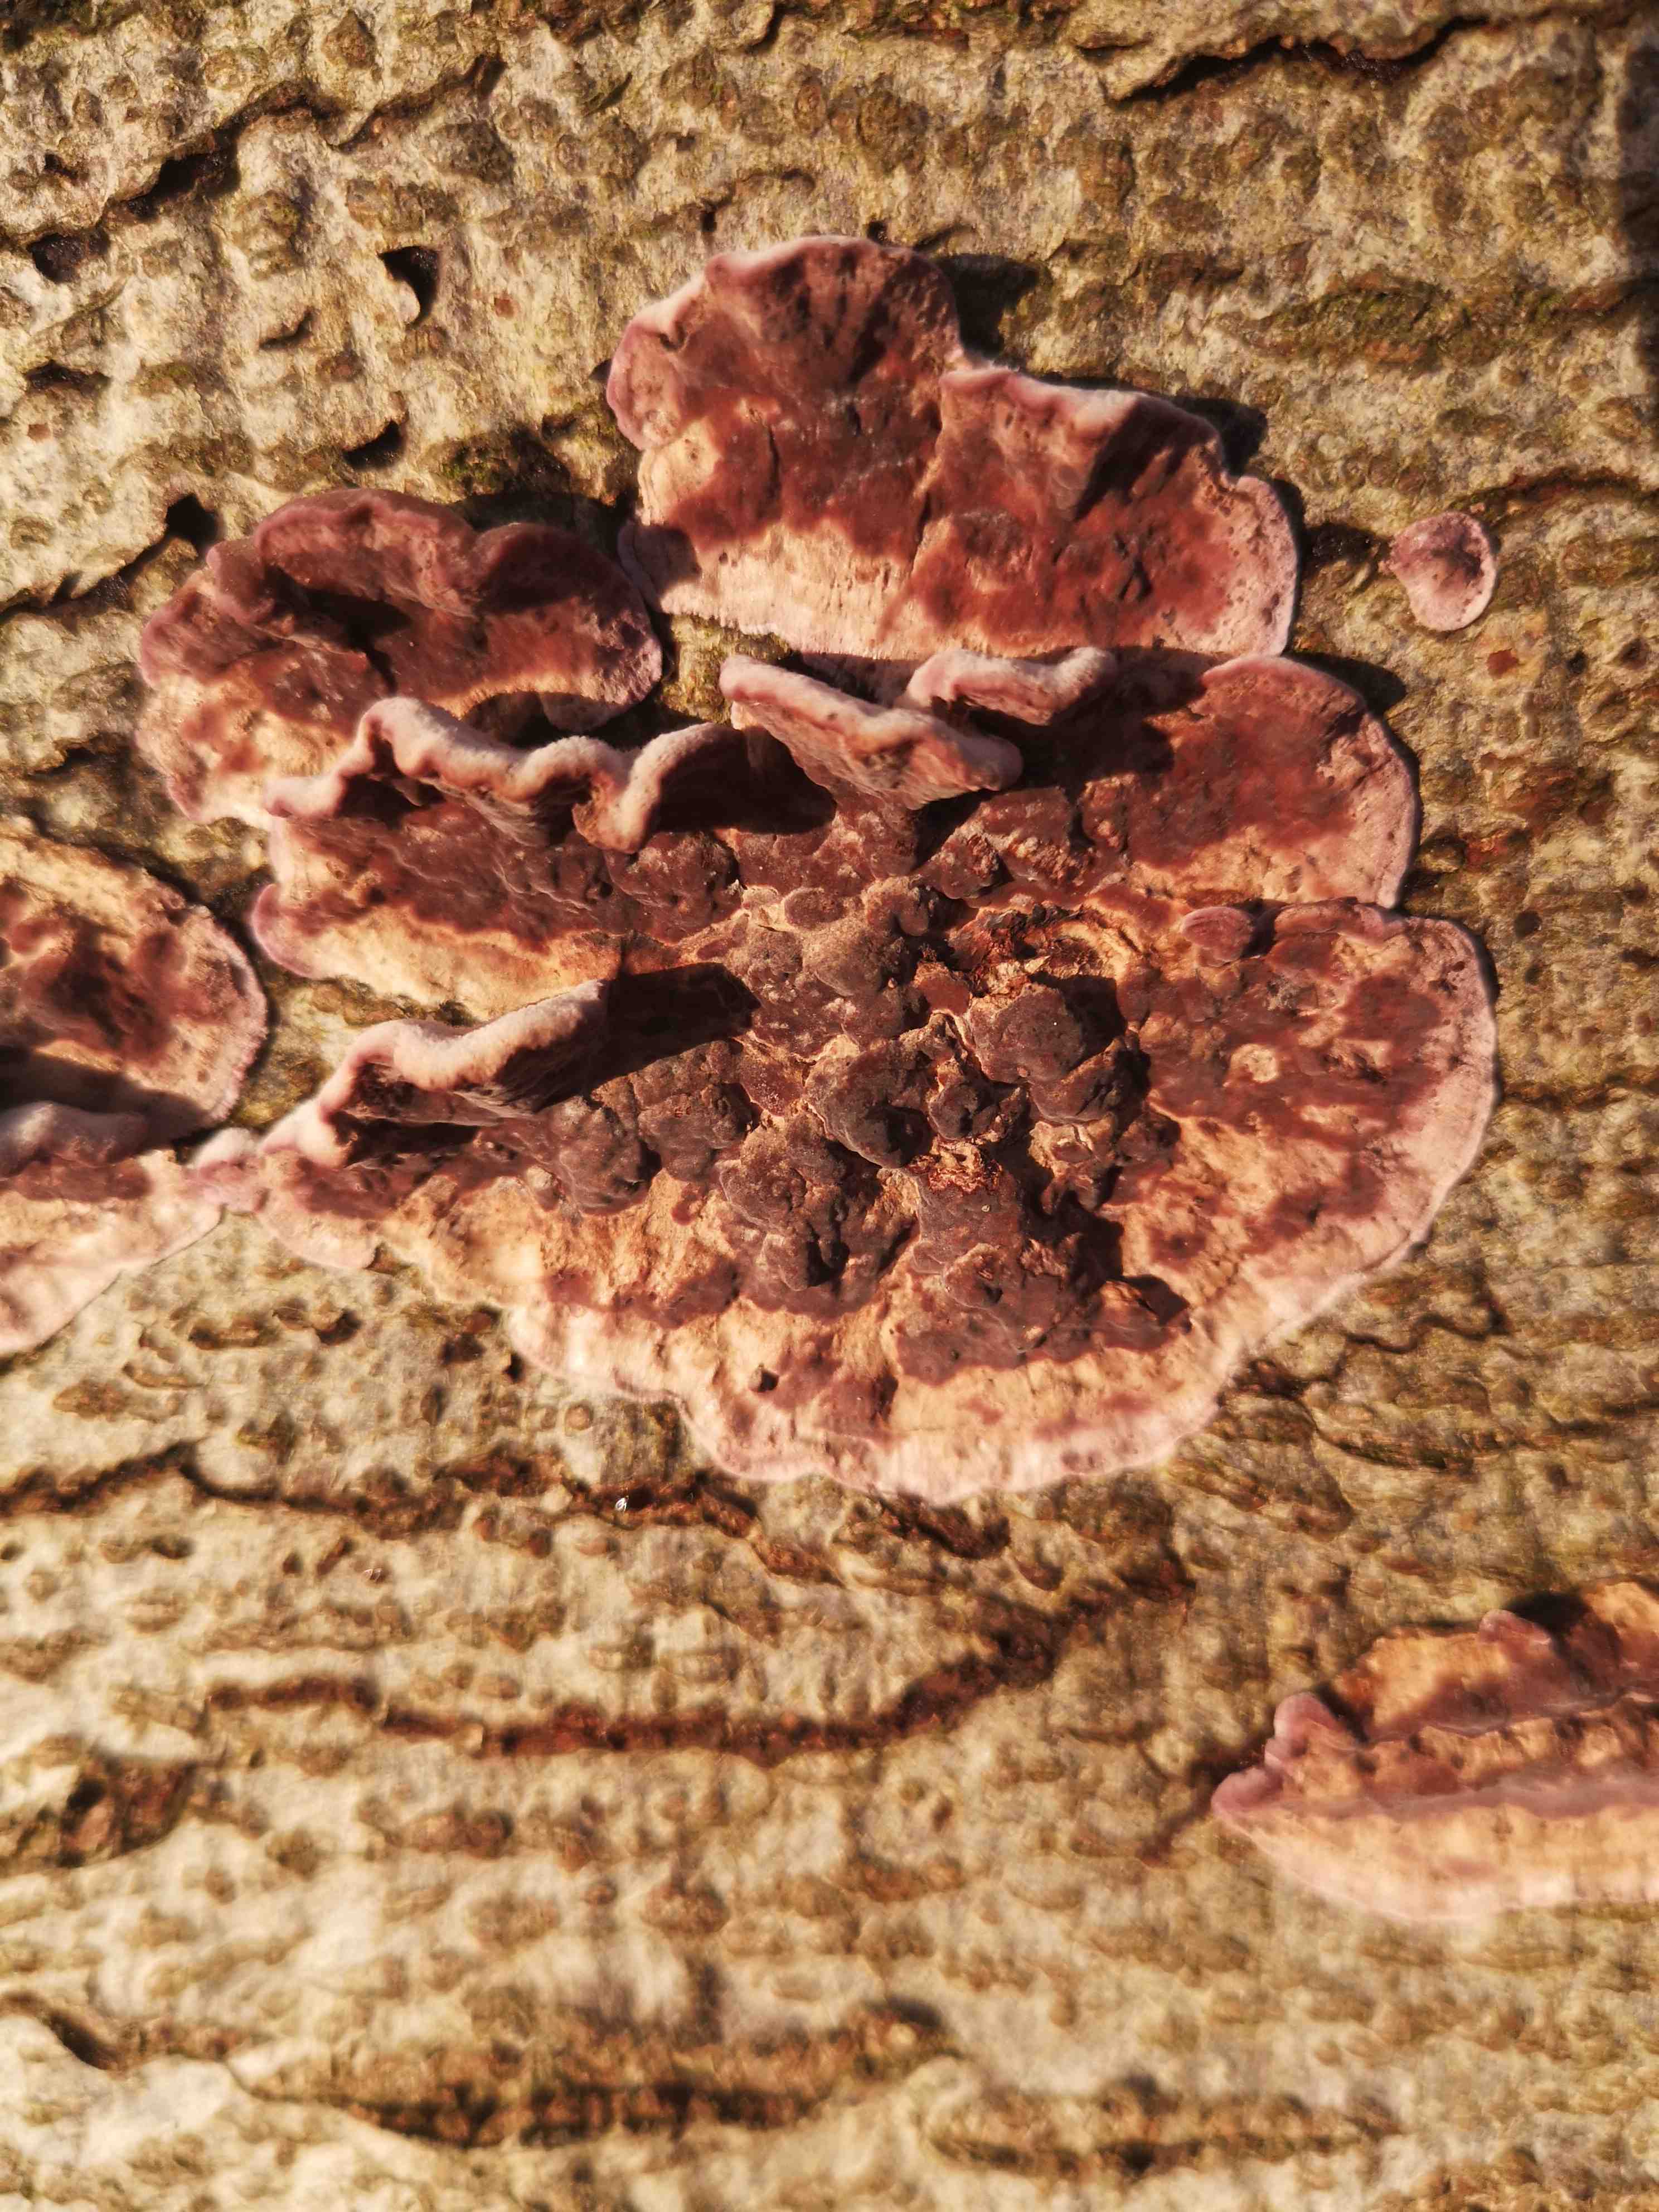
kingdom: Fungi
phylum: Basidiomycota
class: Agaricomycetes
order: Agaricales
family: Cyphellaceae
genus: Chondrostereum
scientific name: Chondrostereum purpureum
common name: purpurlædersvamp
